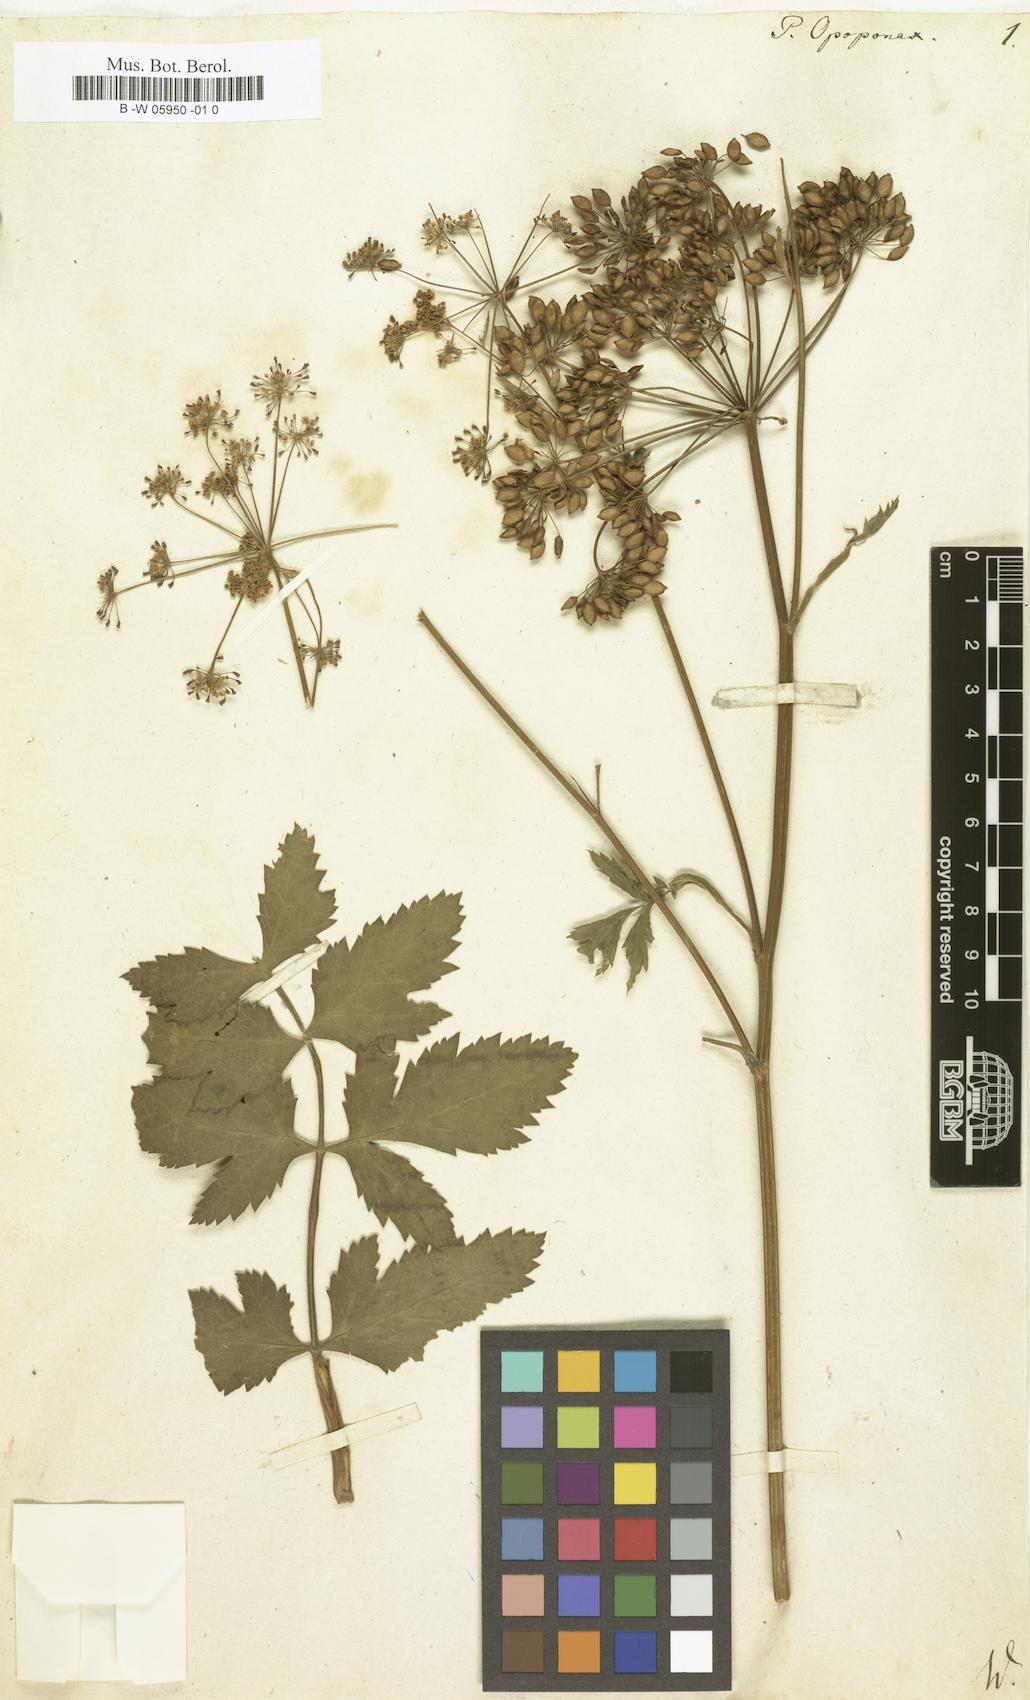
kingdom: Plantae
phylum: Tracheophyta
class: Magnoliopsida
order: Apiales
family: Apiaceae
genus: Opopanax
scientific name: Opopanax chironium
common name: Hercules-all-heal
